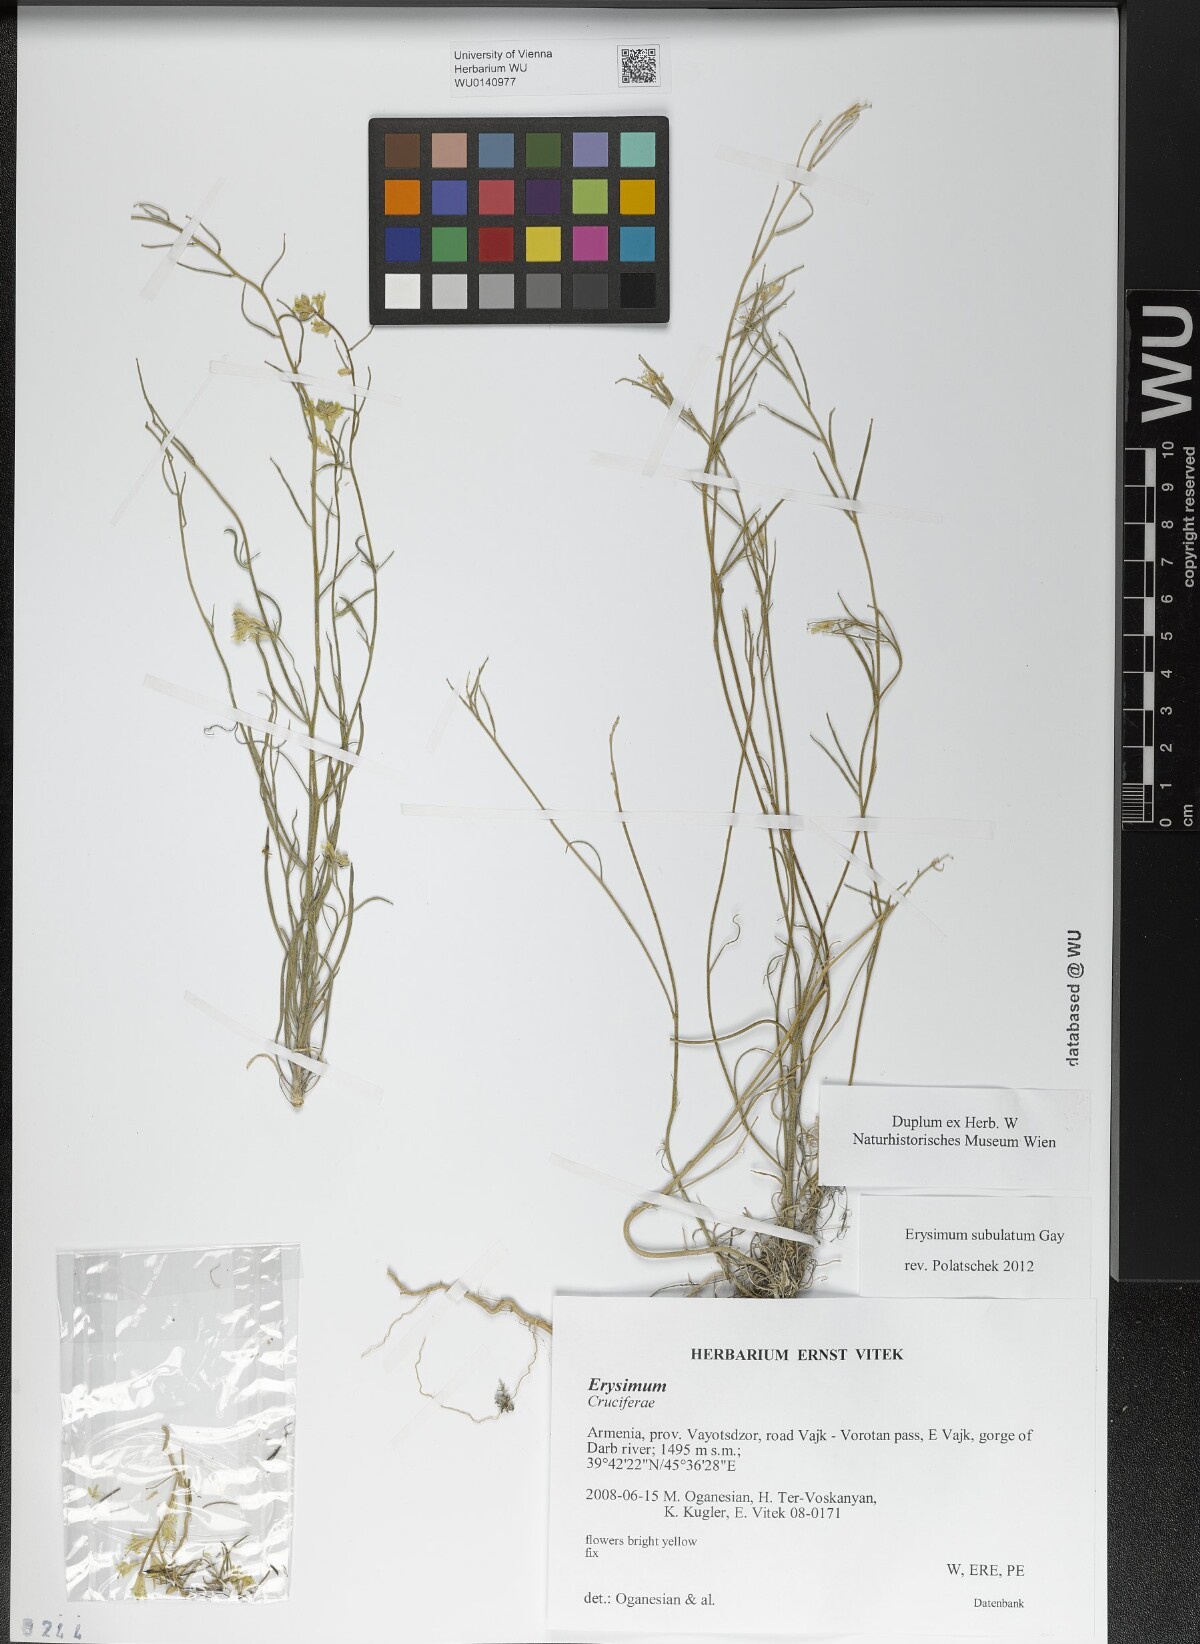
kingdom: Plantae
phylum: Tracheophyta
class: Magnoliopsida
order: Brassicales
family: Brassicaceae
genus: Erysimum
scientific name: Erysimum subulatum
